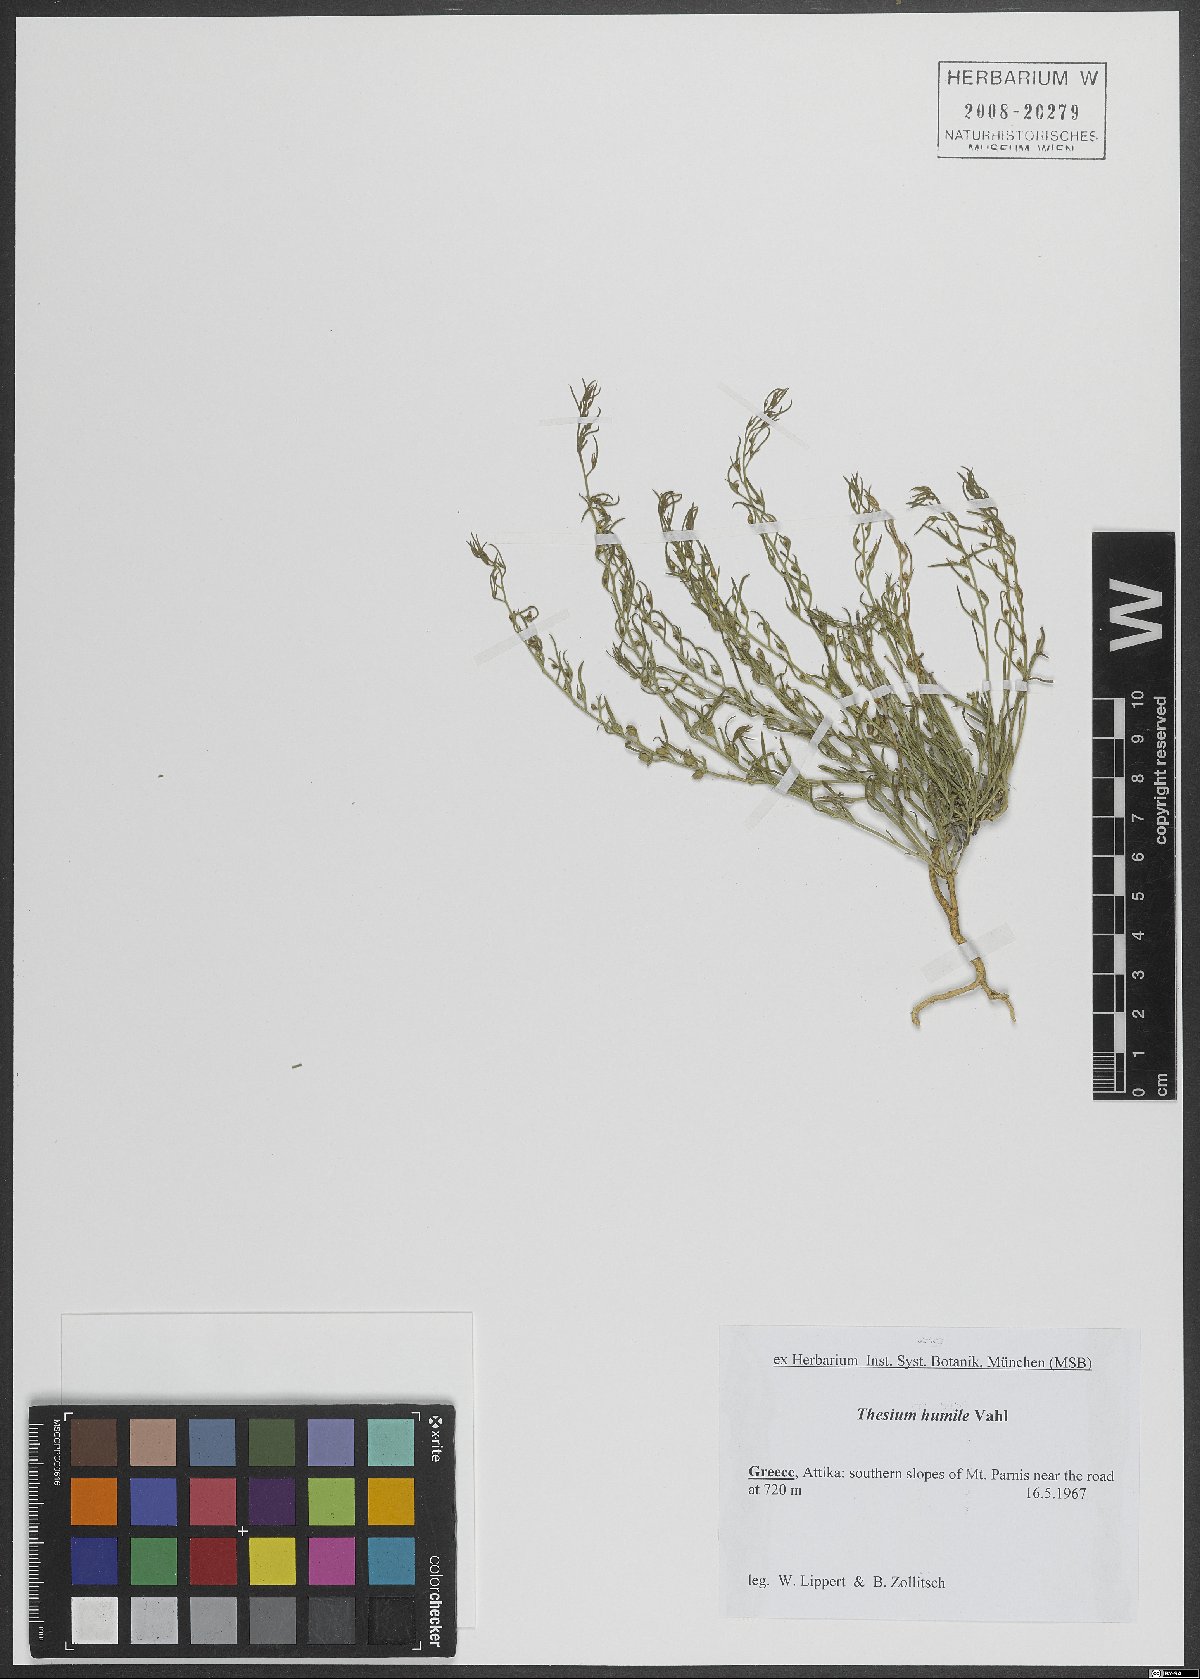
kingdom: Plantae
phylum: Tracheophyta
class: Magnoliopsida
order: Santalales
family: Thesiaceae
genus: Thesium
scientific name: Thesium humile
